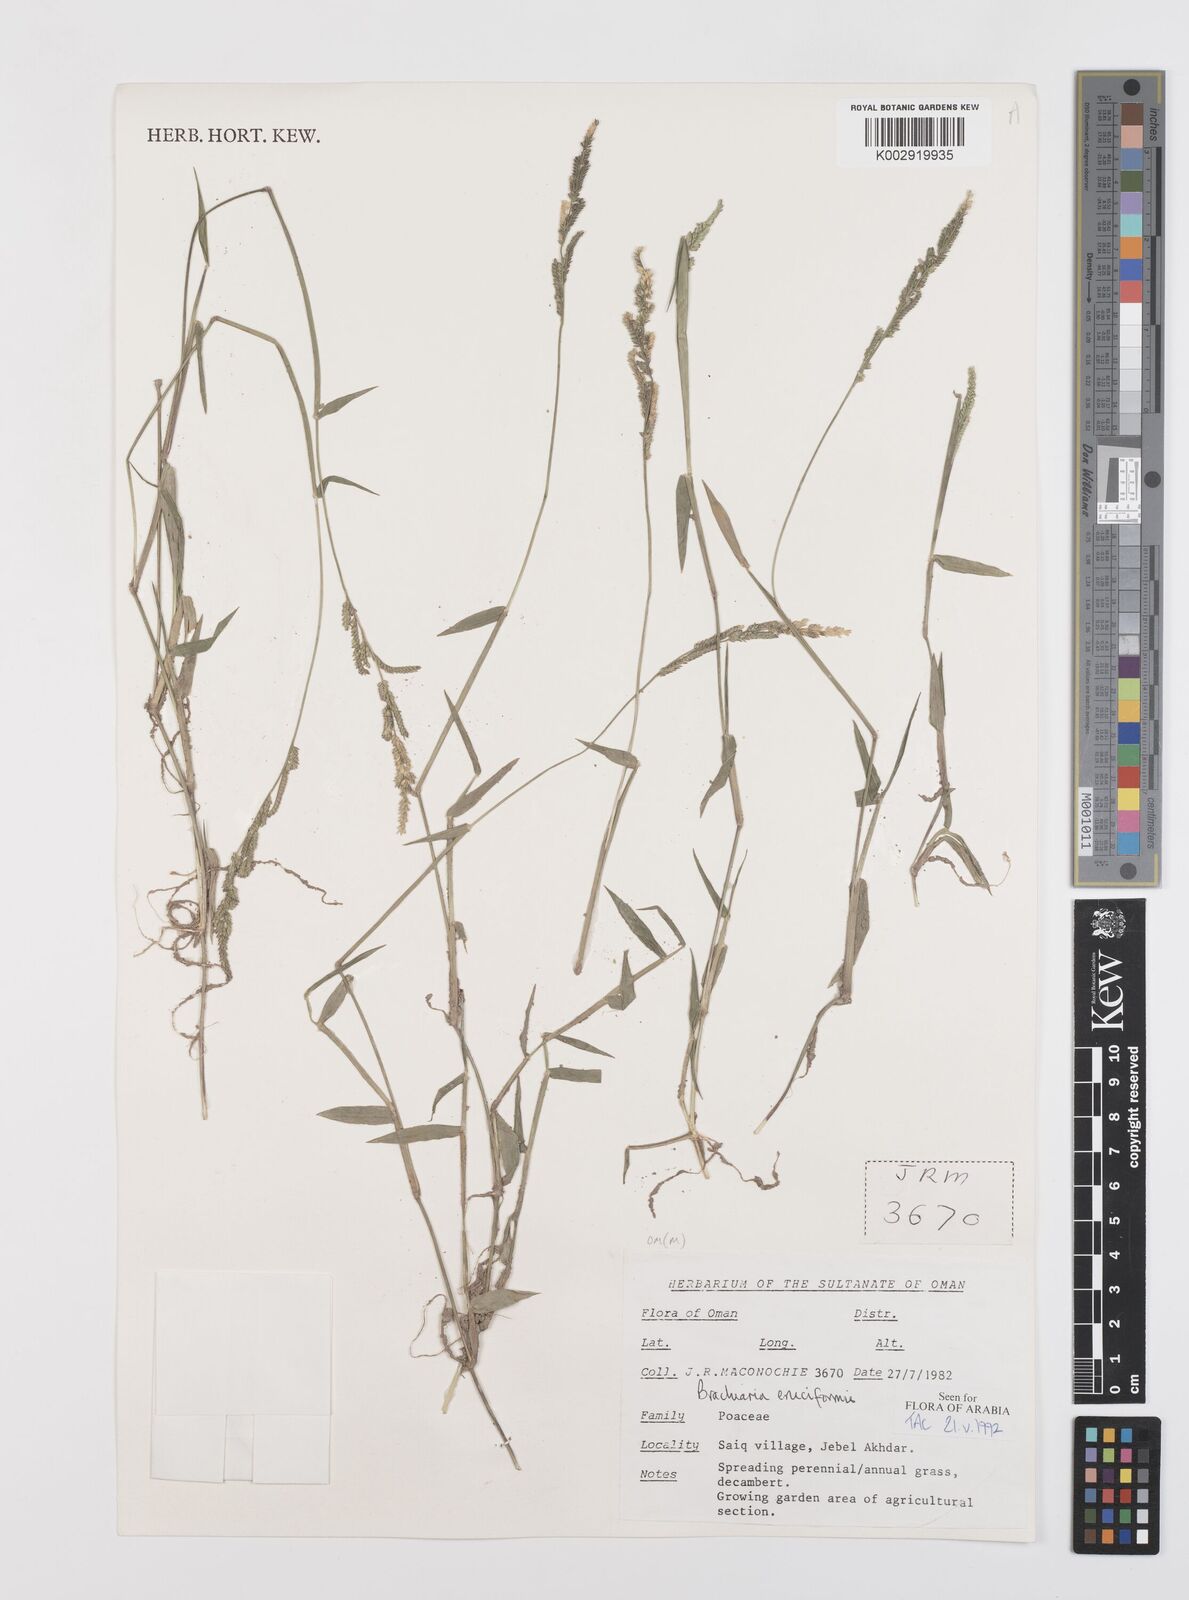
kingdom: Plantae
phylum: Tracheophyta
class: Liliopsida
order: Poales
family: Poaceae
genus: Moorochloa
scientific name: Moorochloa eruciformis
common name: Sweet signalgrass
